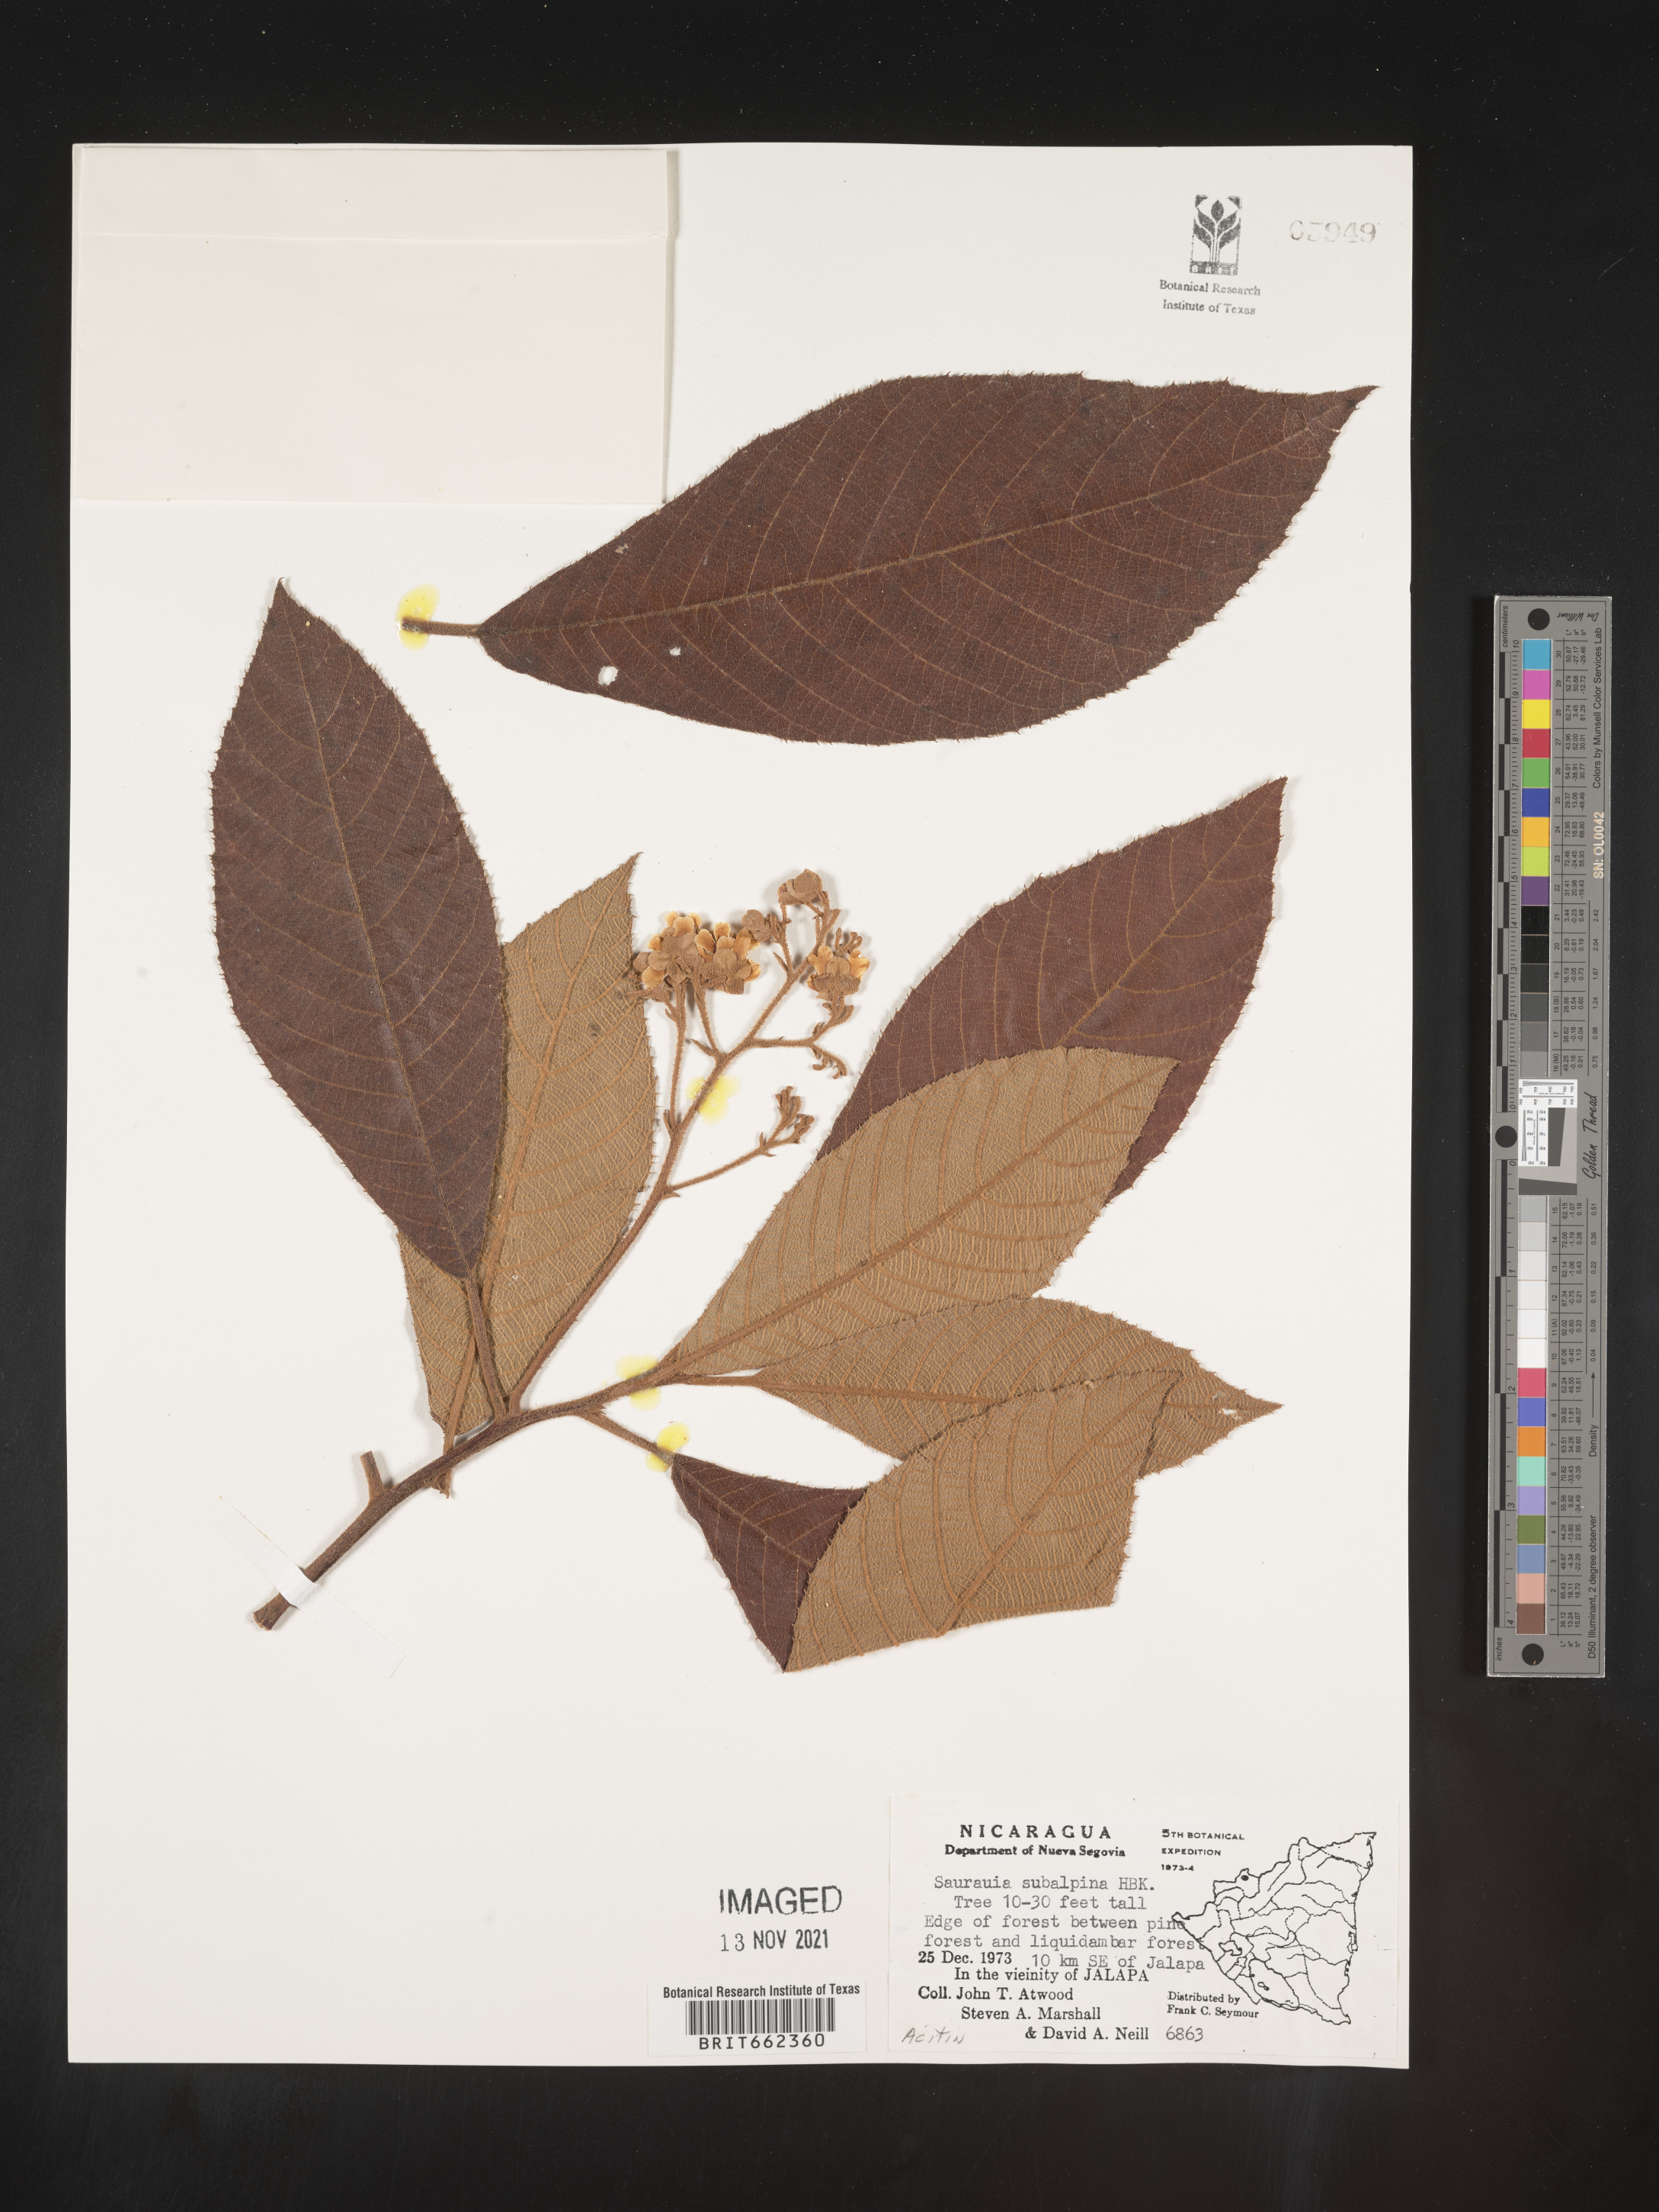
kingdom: Plantae
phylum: Tracheophyta
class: Magnoliopsida
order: Ericales
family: Actinidiaceae
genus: Saurauia
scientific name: Saurauia
